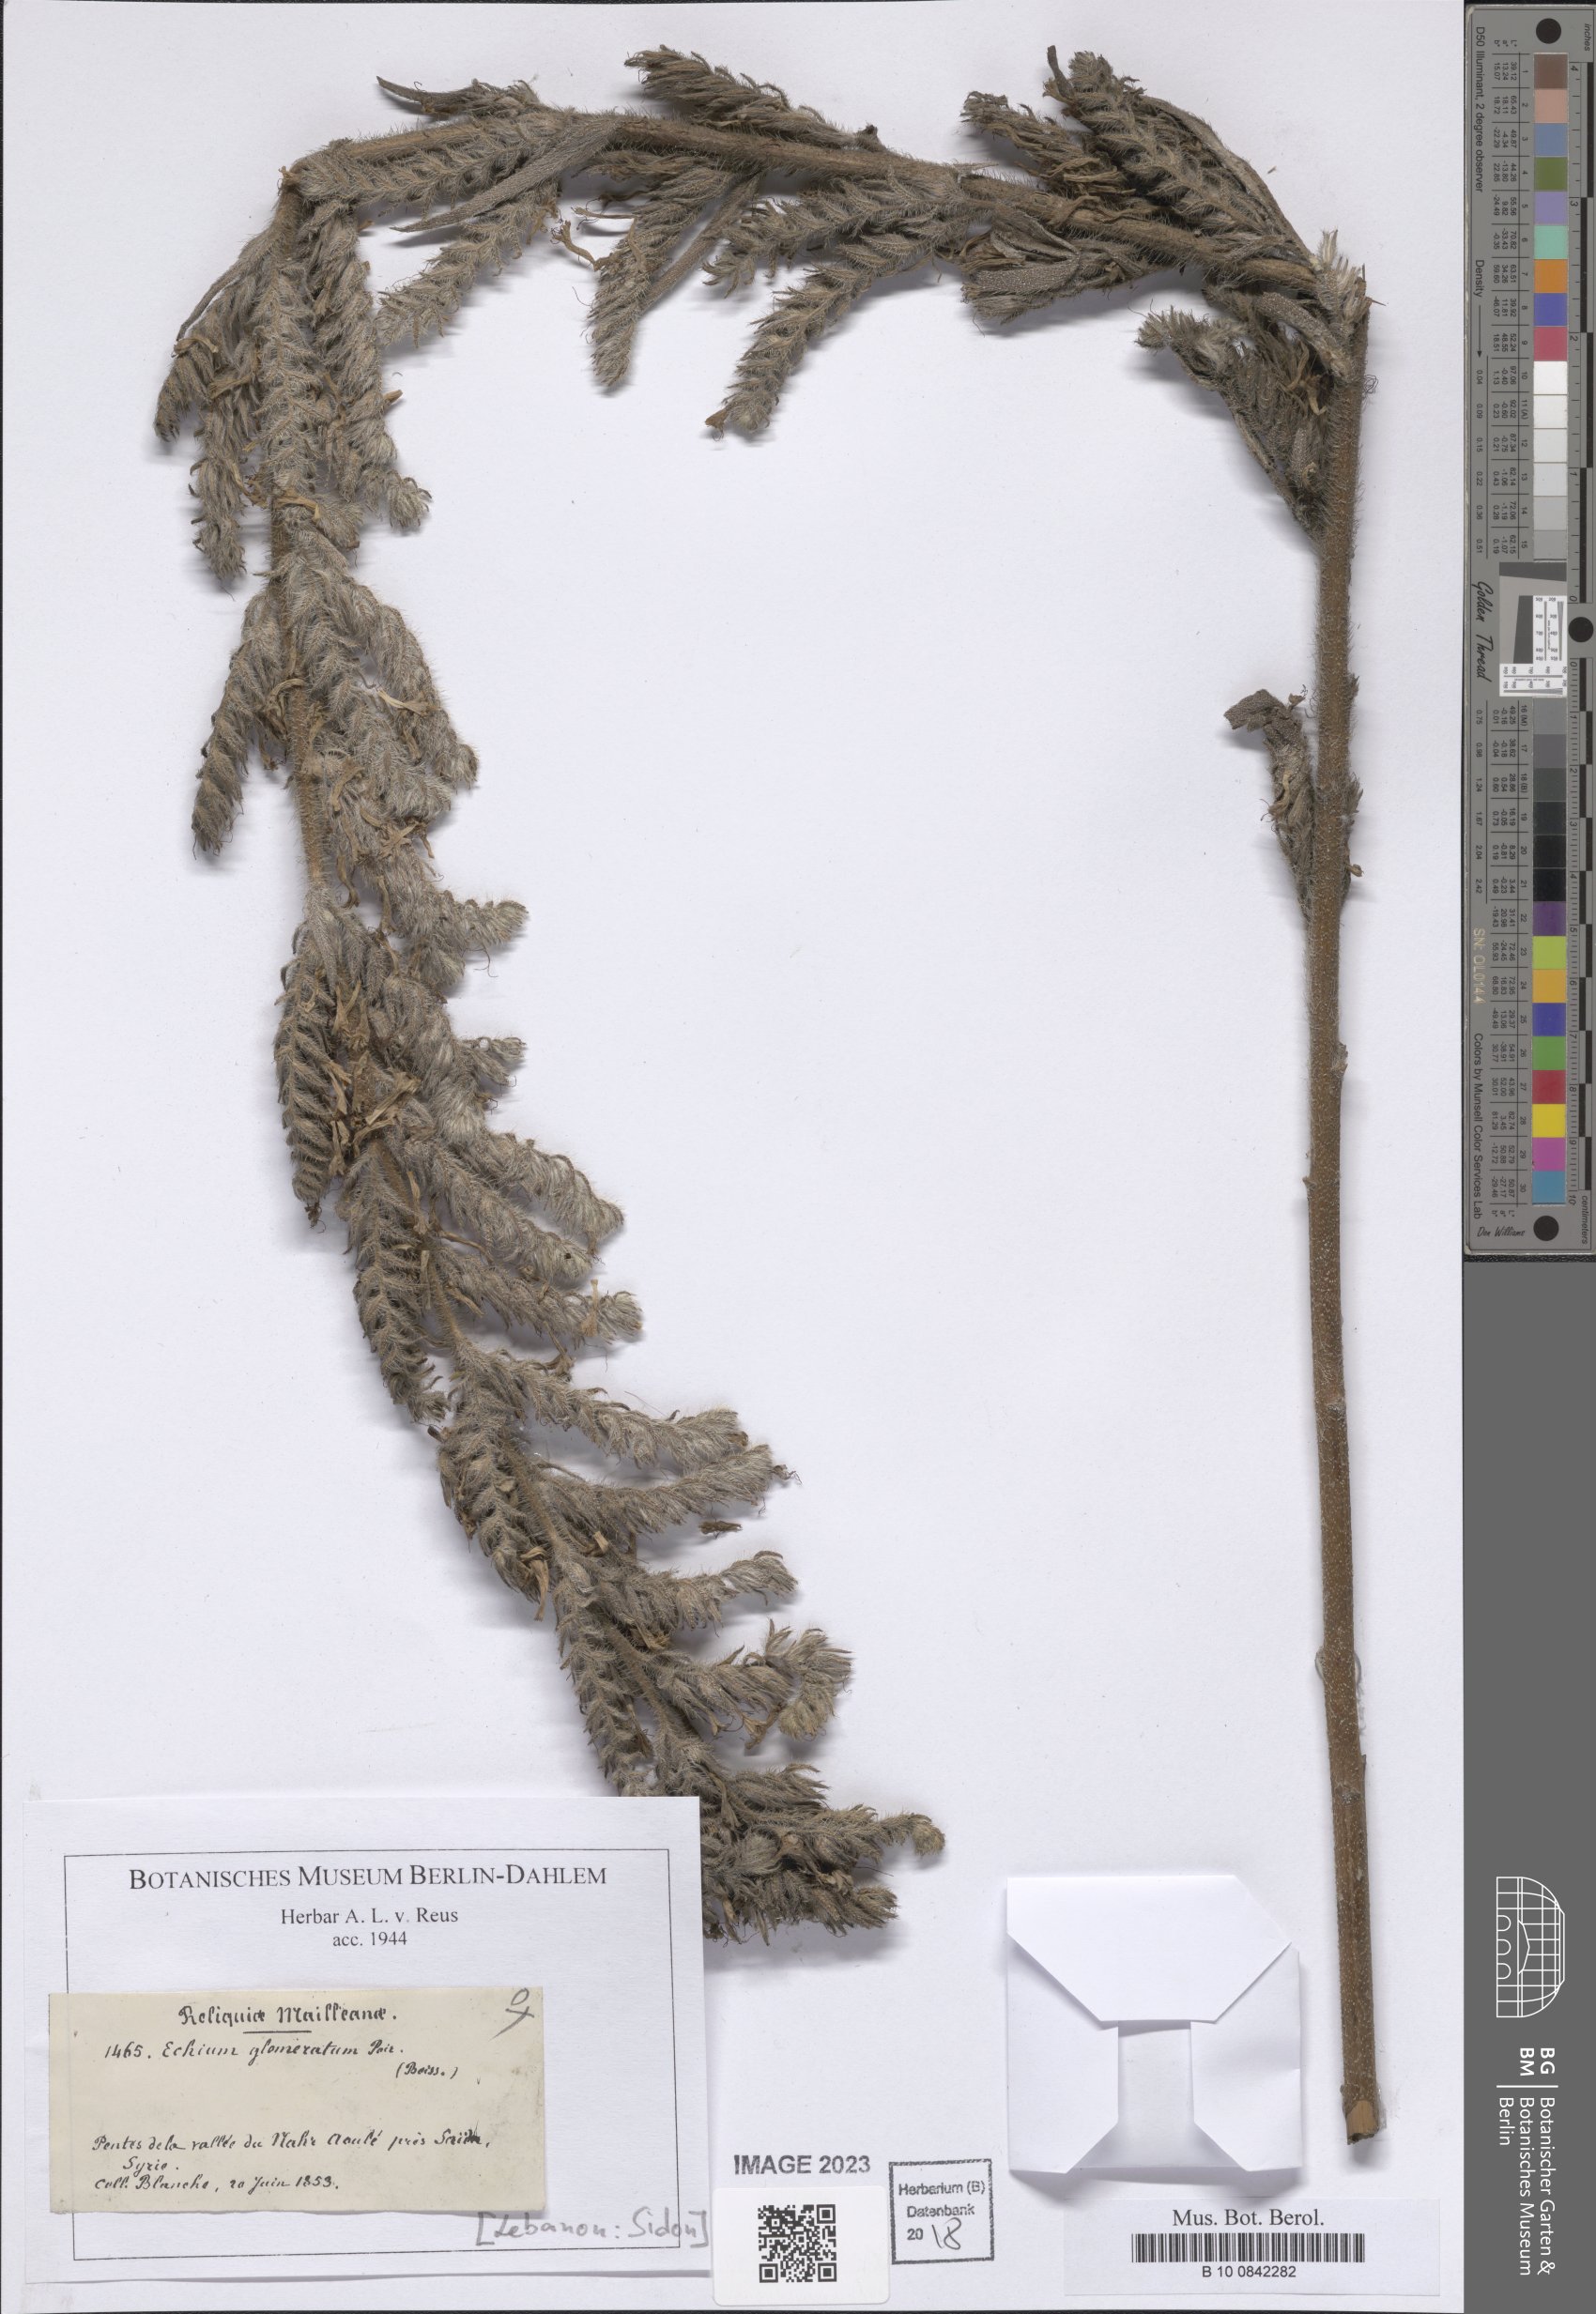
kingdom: Plantae
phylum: Tracheophyta
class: Magnoliopsida
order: Boraginales
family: Boraginaceae
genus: Echium
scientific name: Echium glomeratum
